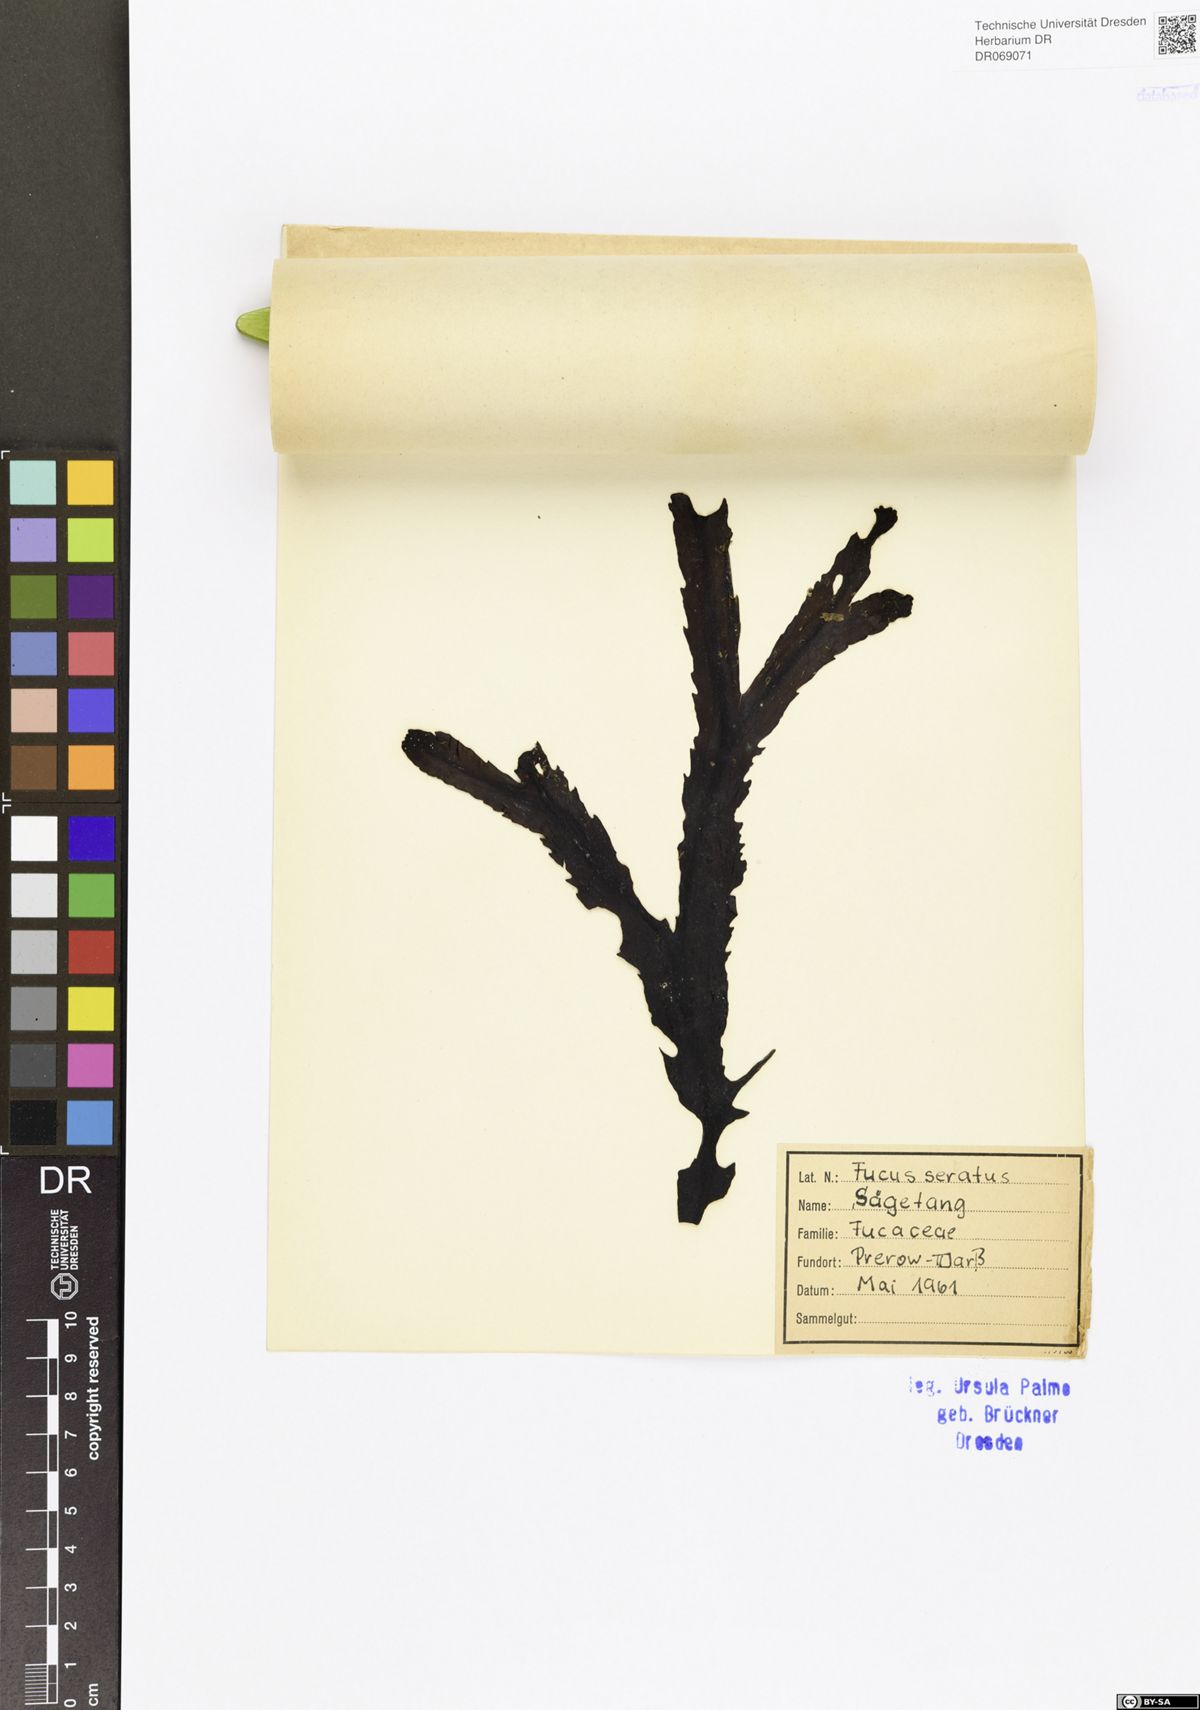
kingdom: Chromista
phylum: Ochrophyta
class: Phaeophyceae
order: Fucales
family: Fucaceae
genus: Fucus
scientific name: Fucus serratus
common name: Toothed wrack
